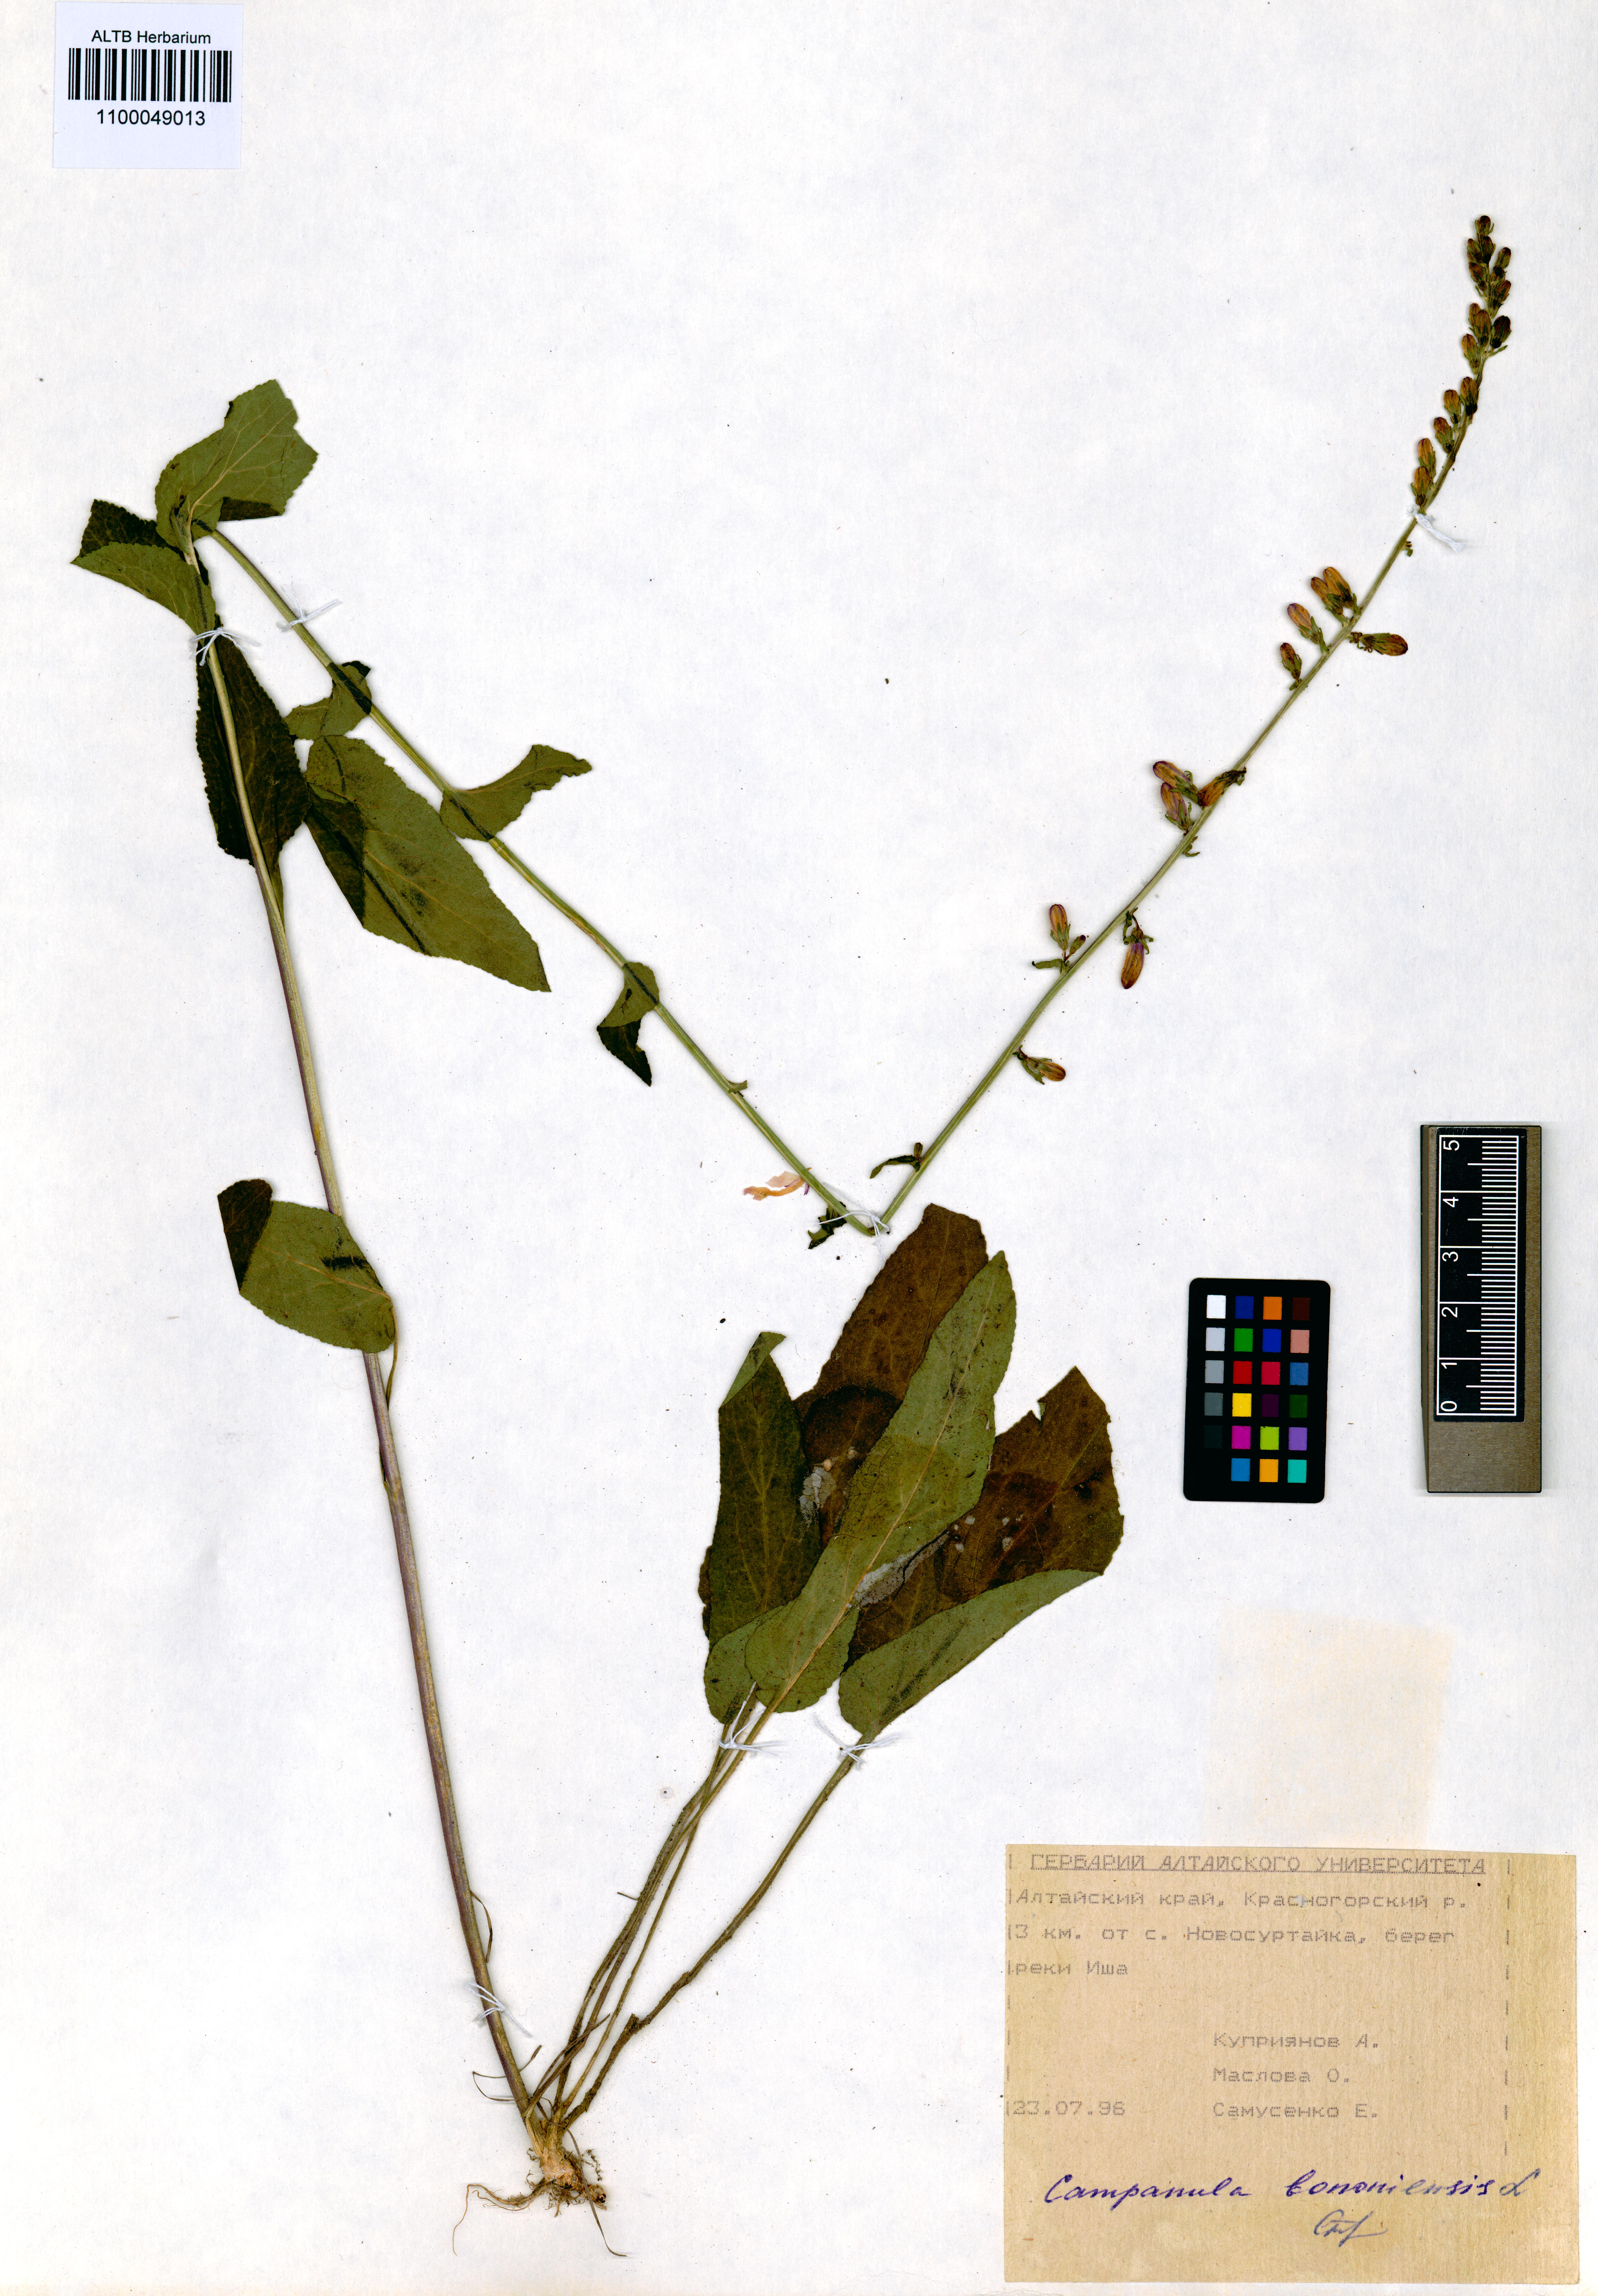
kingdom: Plantae
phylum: Tracheophyta
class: Magnoliopsida
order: Asterales
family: Campanulaceae
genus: Campanula
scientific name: Campanula bononiensis
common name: Pale bellflower
